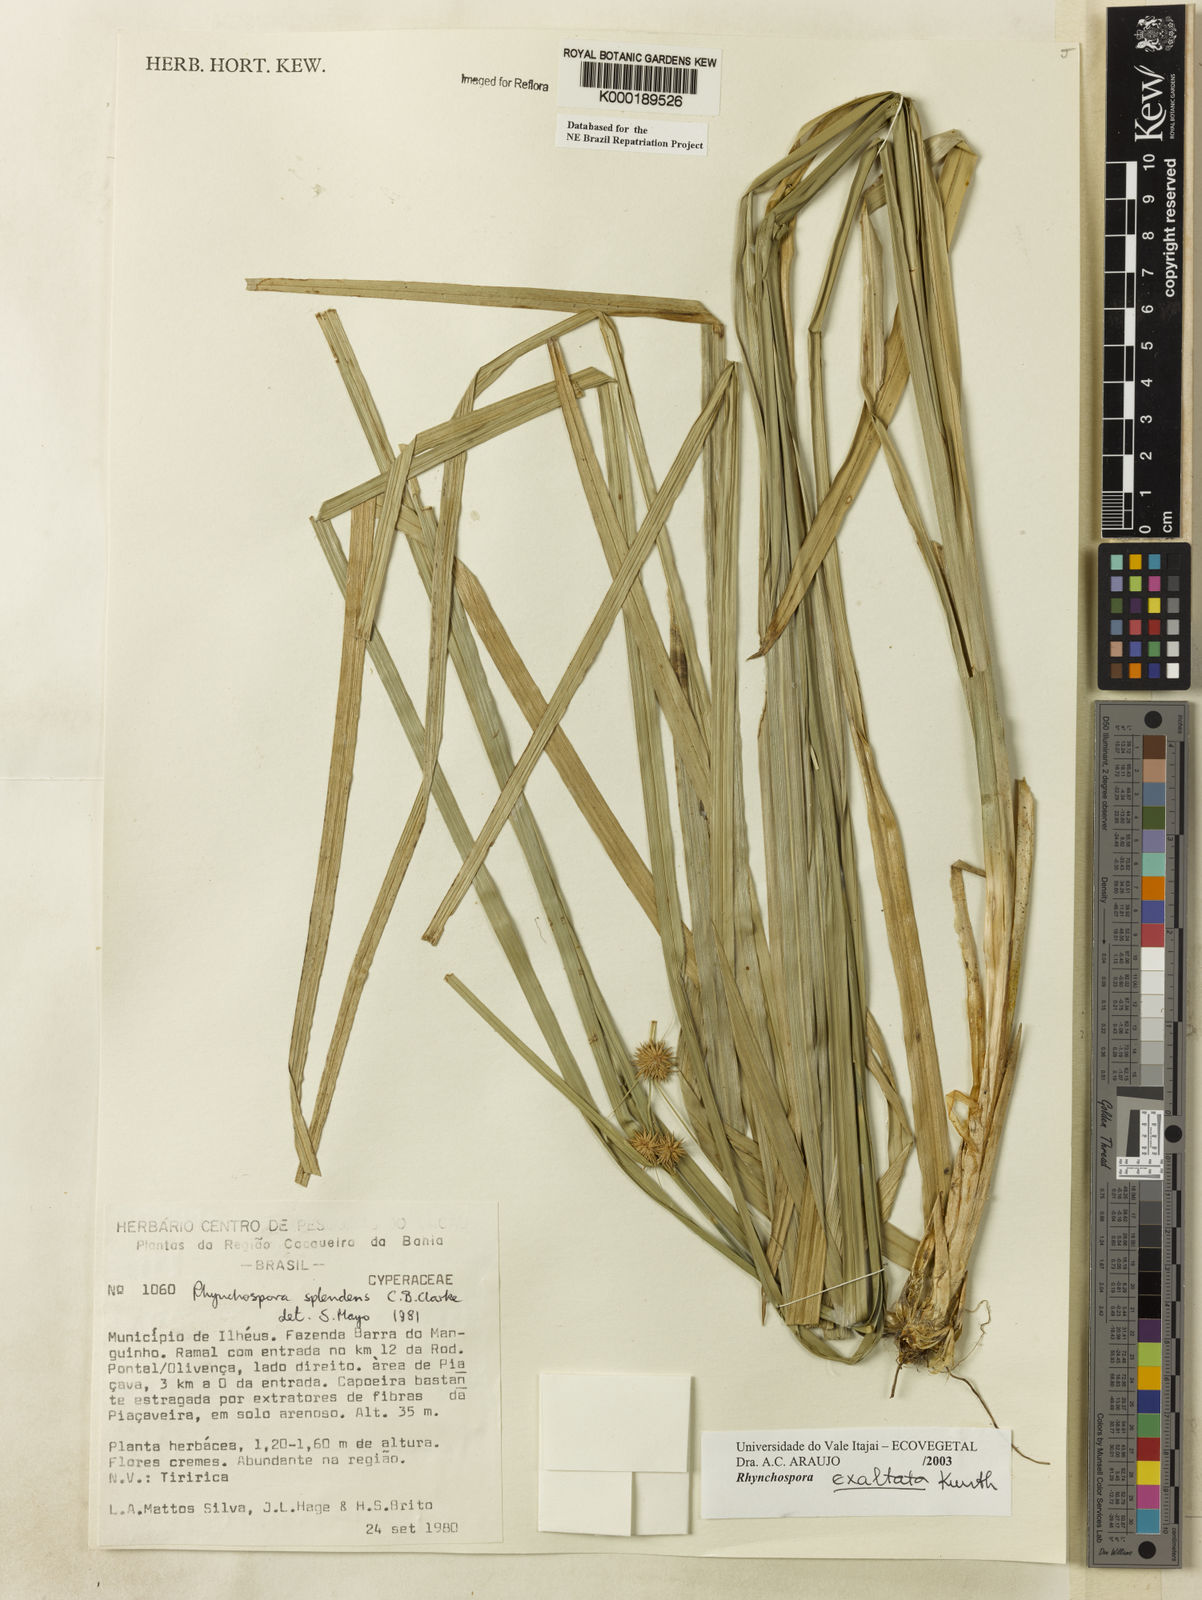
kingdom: Plantae
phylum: Tracheophyta
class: Liliopsida
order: Poales
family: Cyperaceae
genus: Rhynchospora
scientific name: Rhynchospora exaltata
